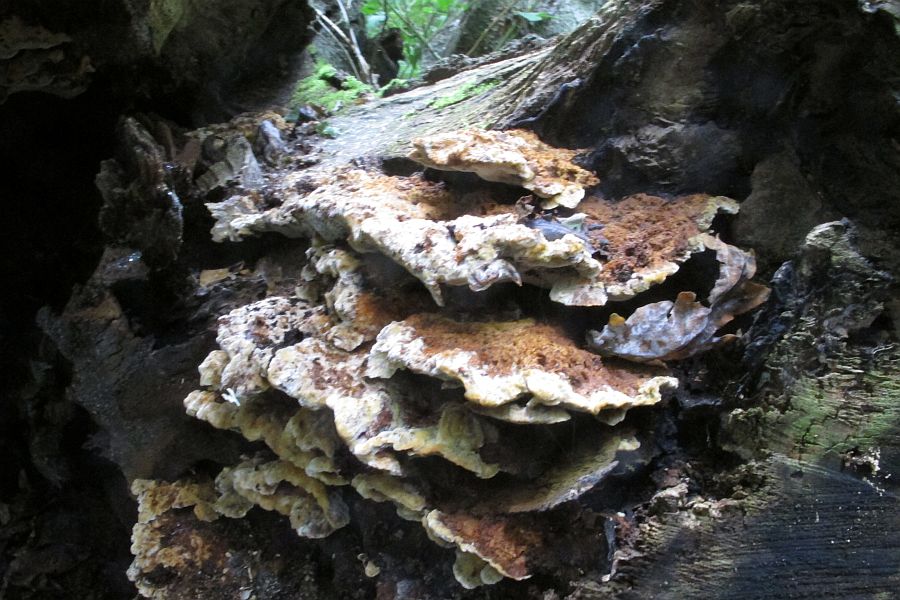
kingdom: Fungi
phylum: Basidiomycota
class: Agaricomycetes
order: Hymenochaetales
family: Hymenochaetaceae
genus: Inonotus
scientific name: Inonotus cuticularis
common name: kroghåret spejlporesvamp
